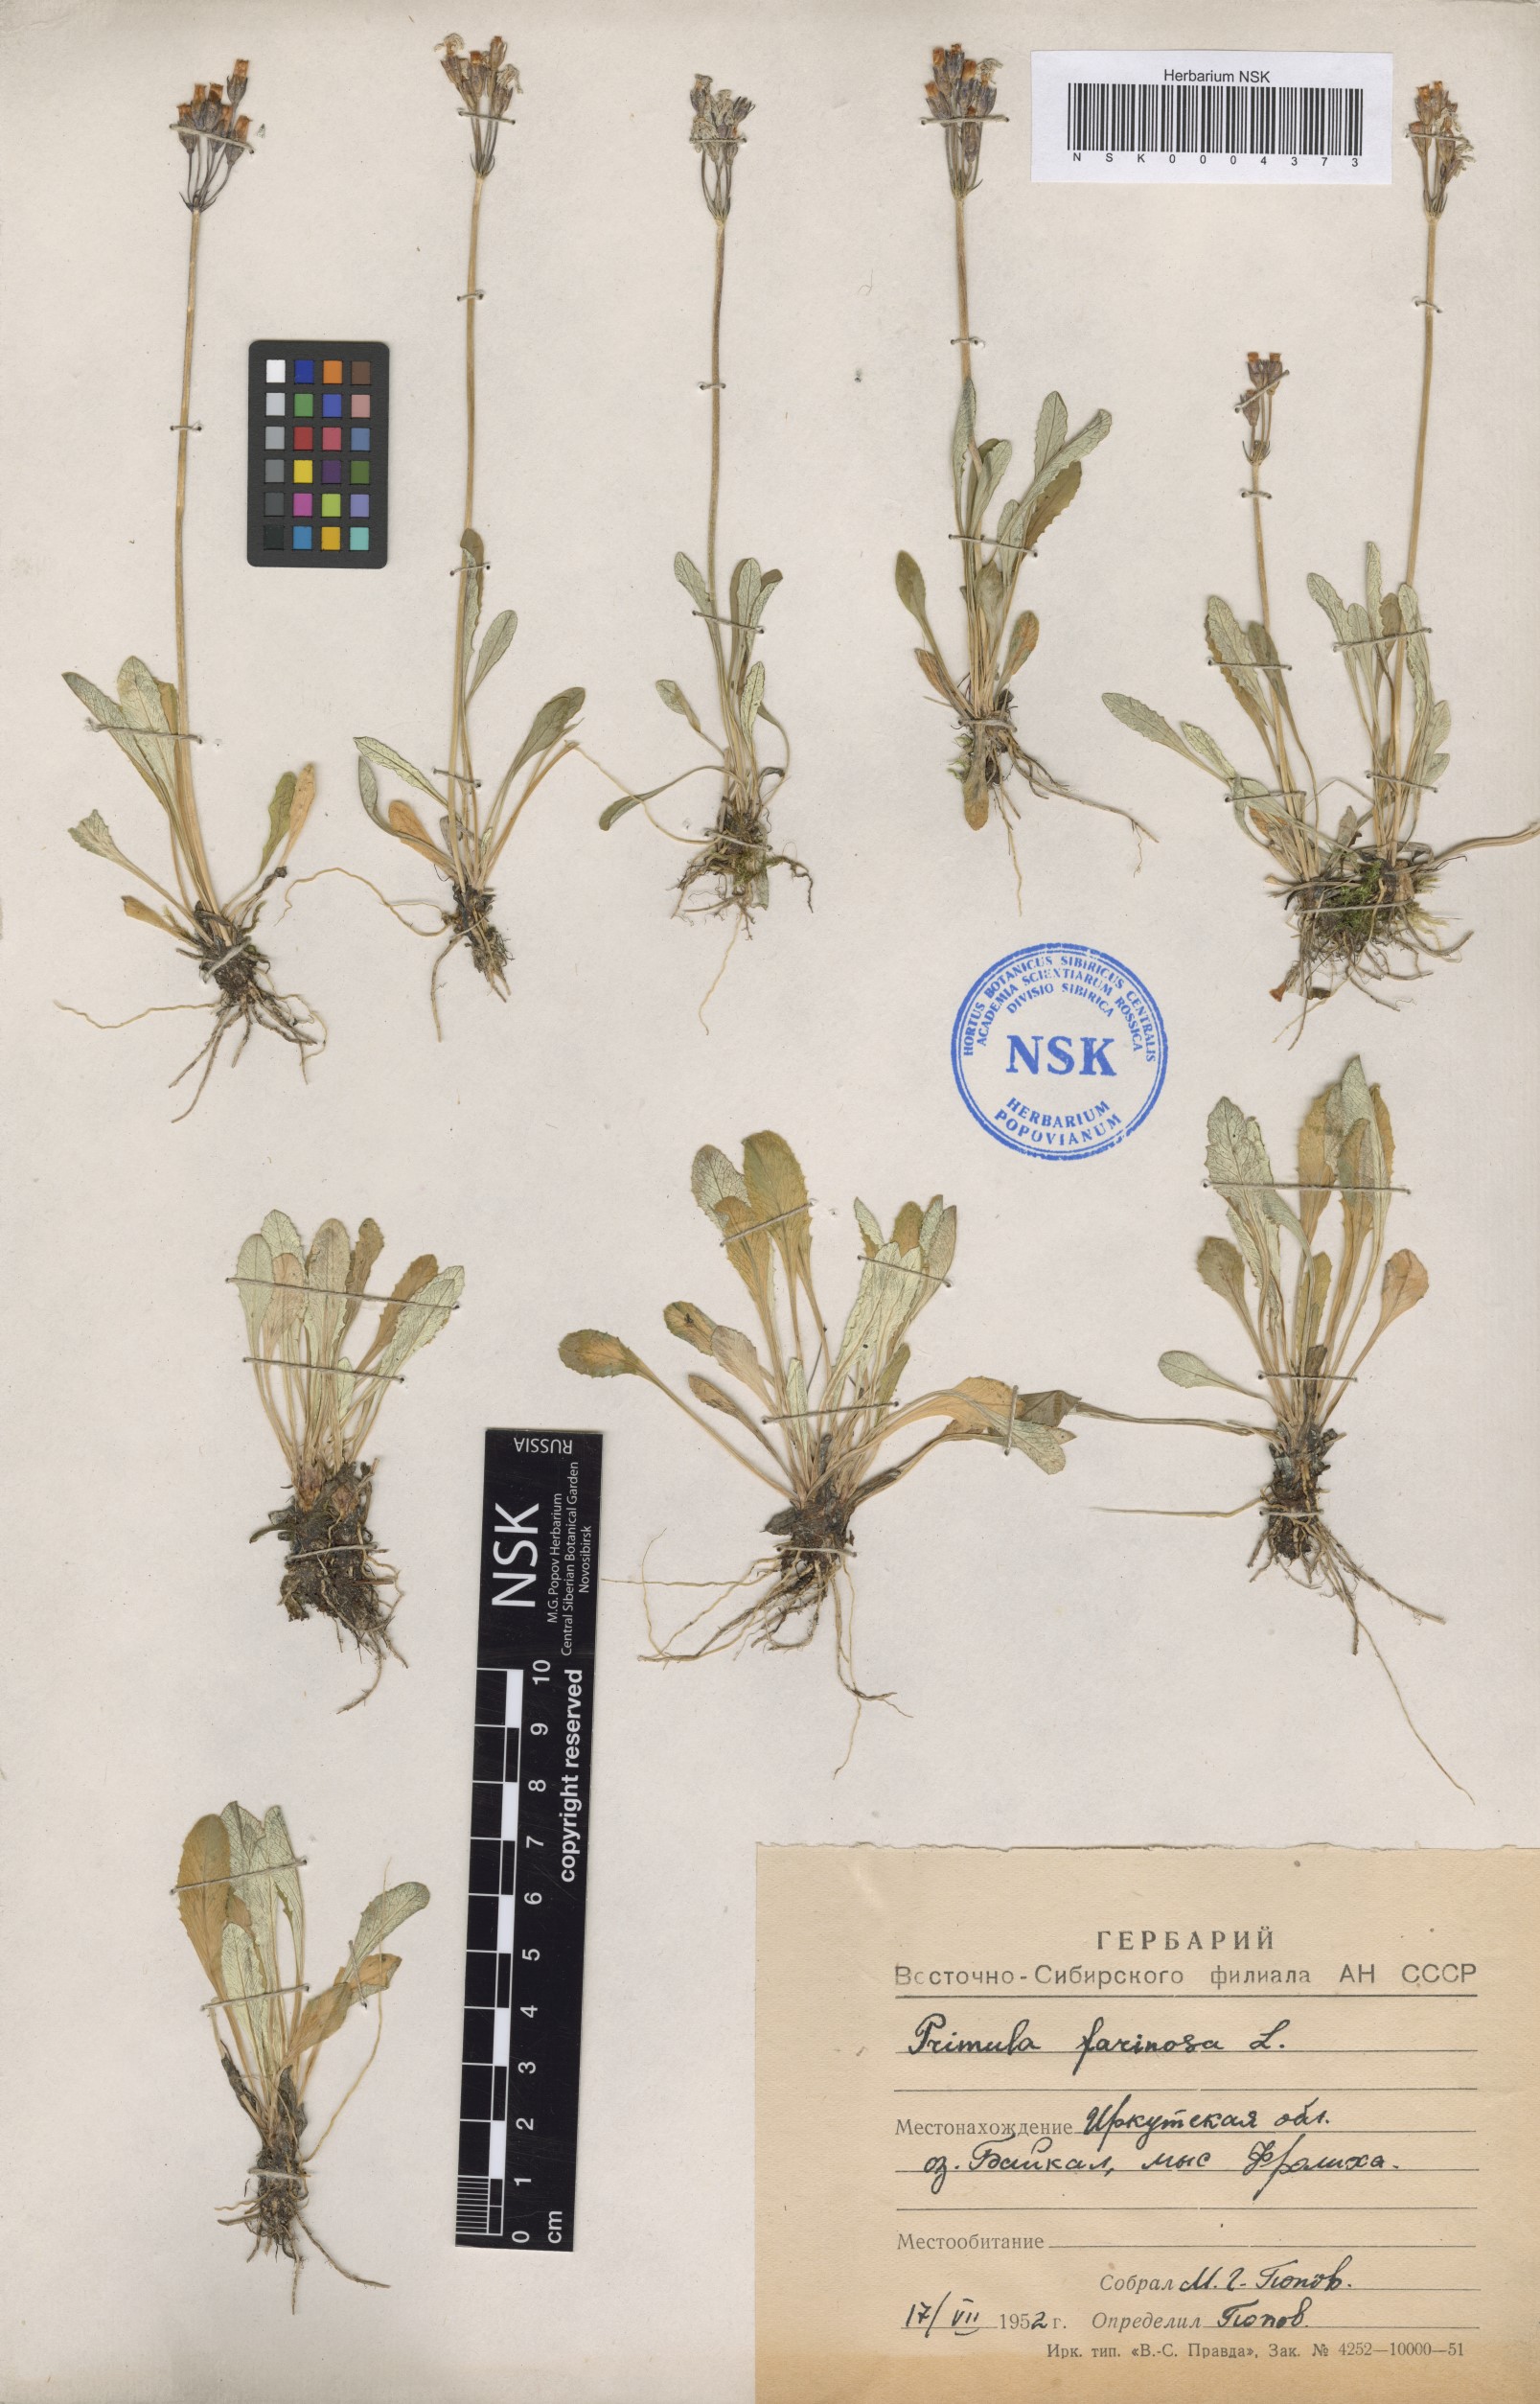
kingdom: Plantae
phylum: Tracheophyta
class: Magnoliopsida
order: Ericales
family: Primulaceae
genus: Primula
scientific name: Primula farinosa
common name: Bird's-eye primrose
